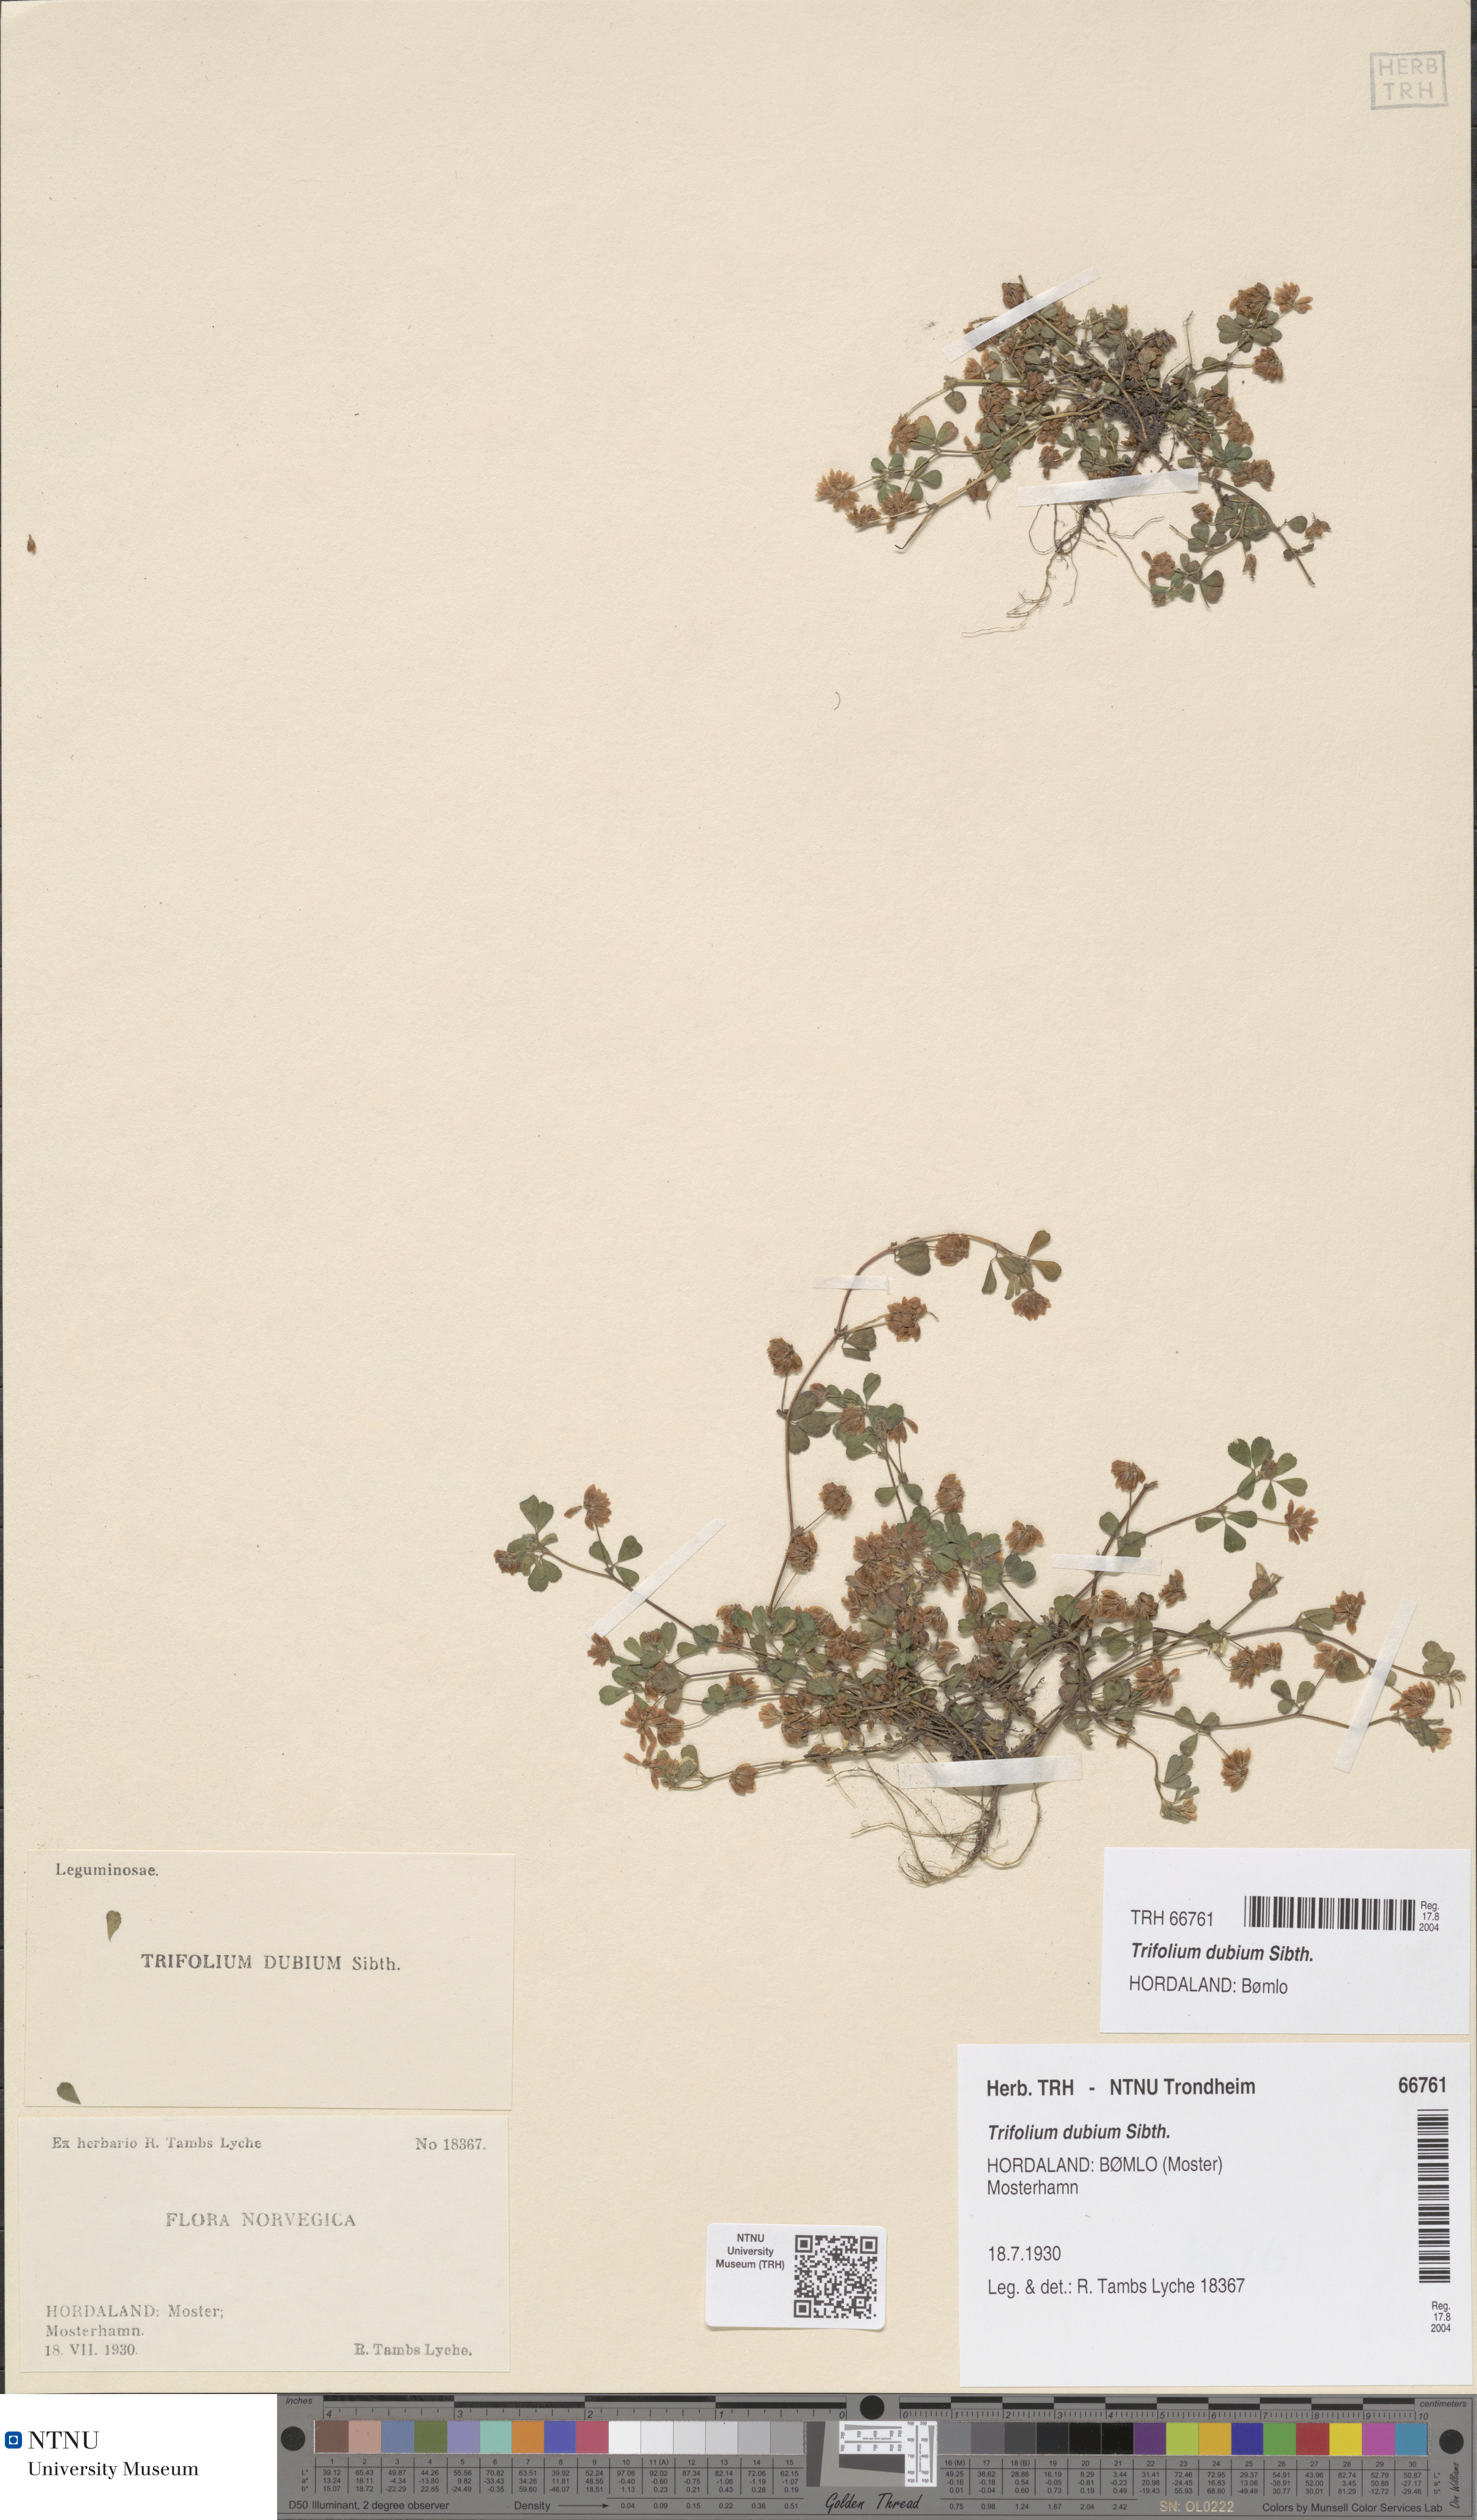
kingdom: Plantae
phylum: Tracheophyta
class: Magnoliopsida
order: Fabales
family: Fabaceae
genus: Trifolium
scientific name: Trifolium dubium
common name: Suckling clover
